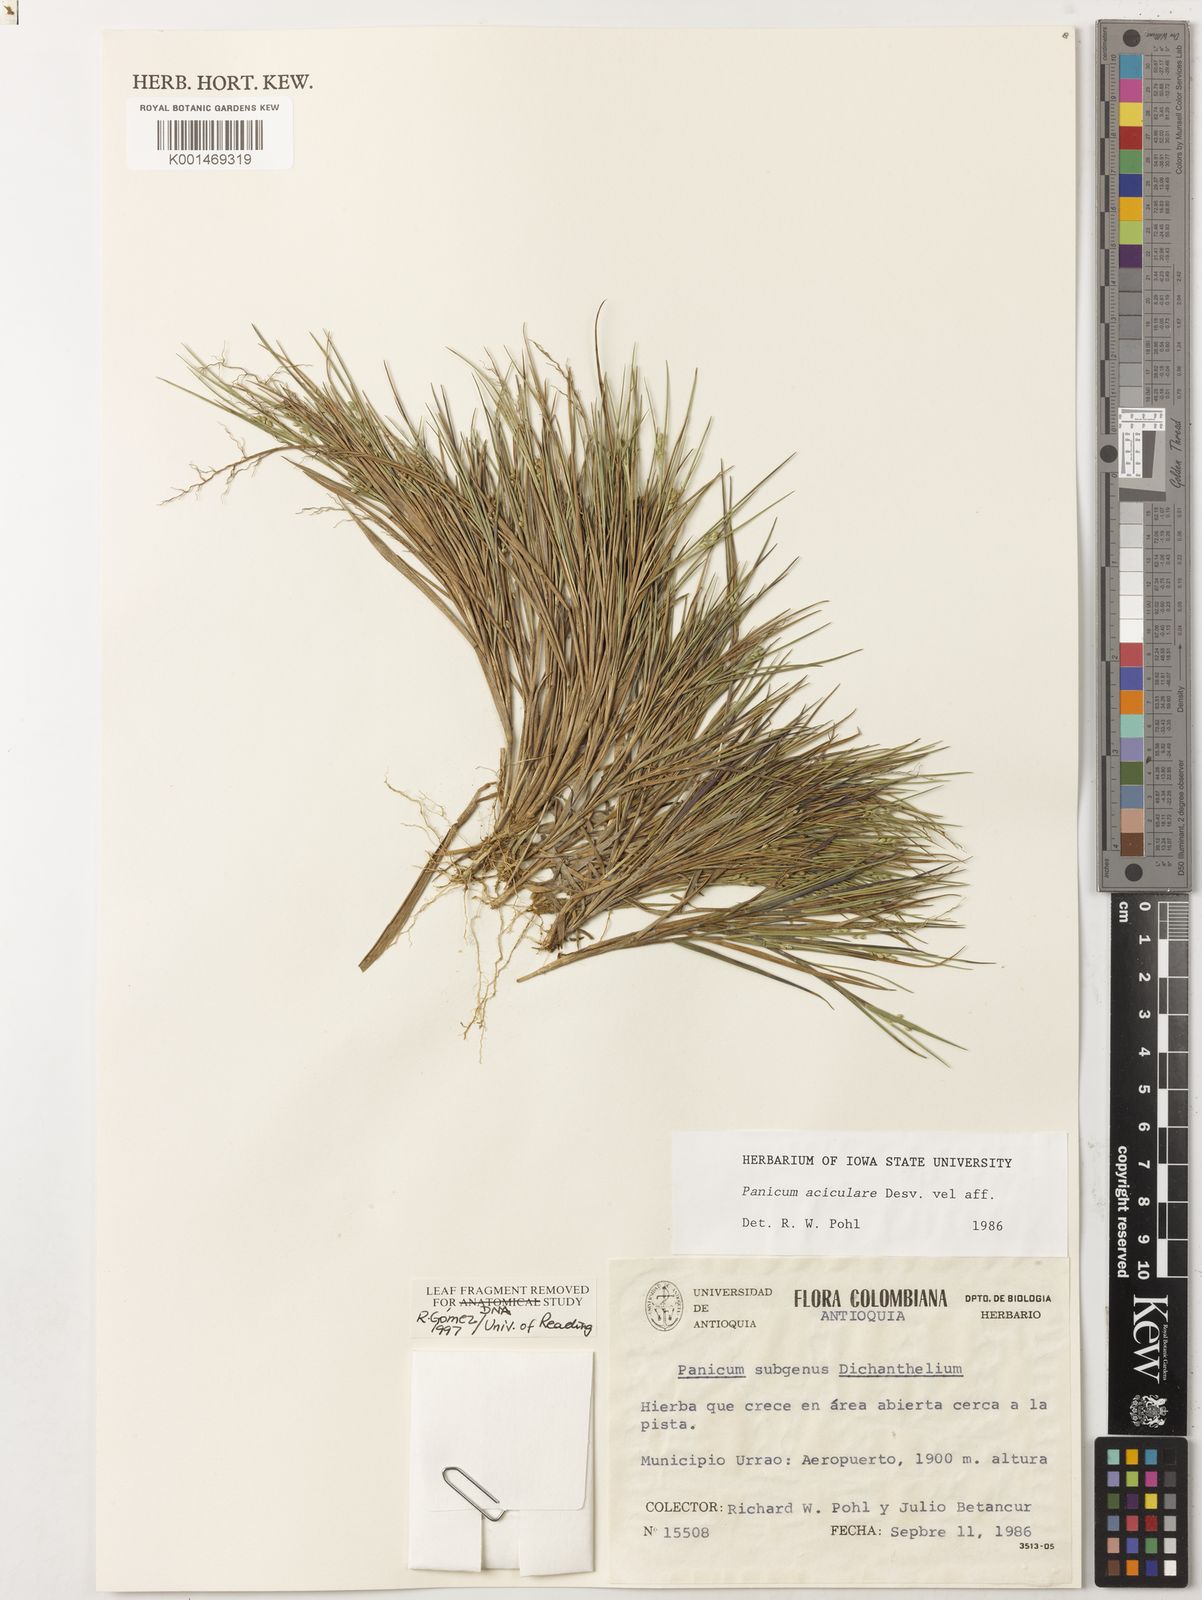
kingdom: Plantae
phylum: Tracheophyta
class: Liliopsida
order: Poales
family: Poaceae
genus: Dichanthelium
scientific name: Dichanthelium aciculare
